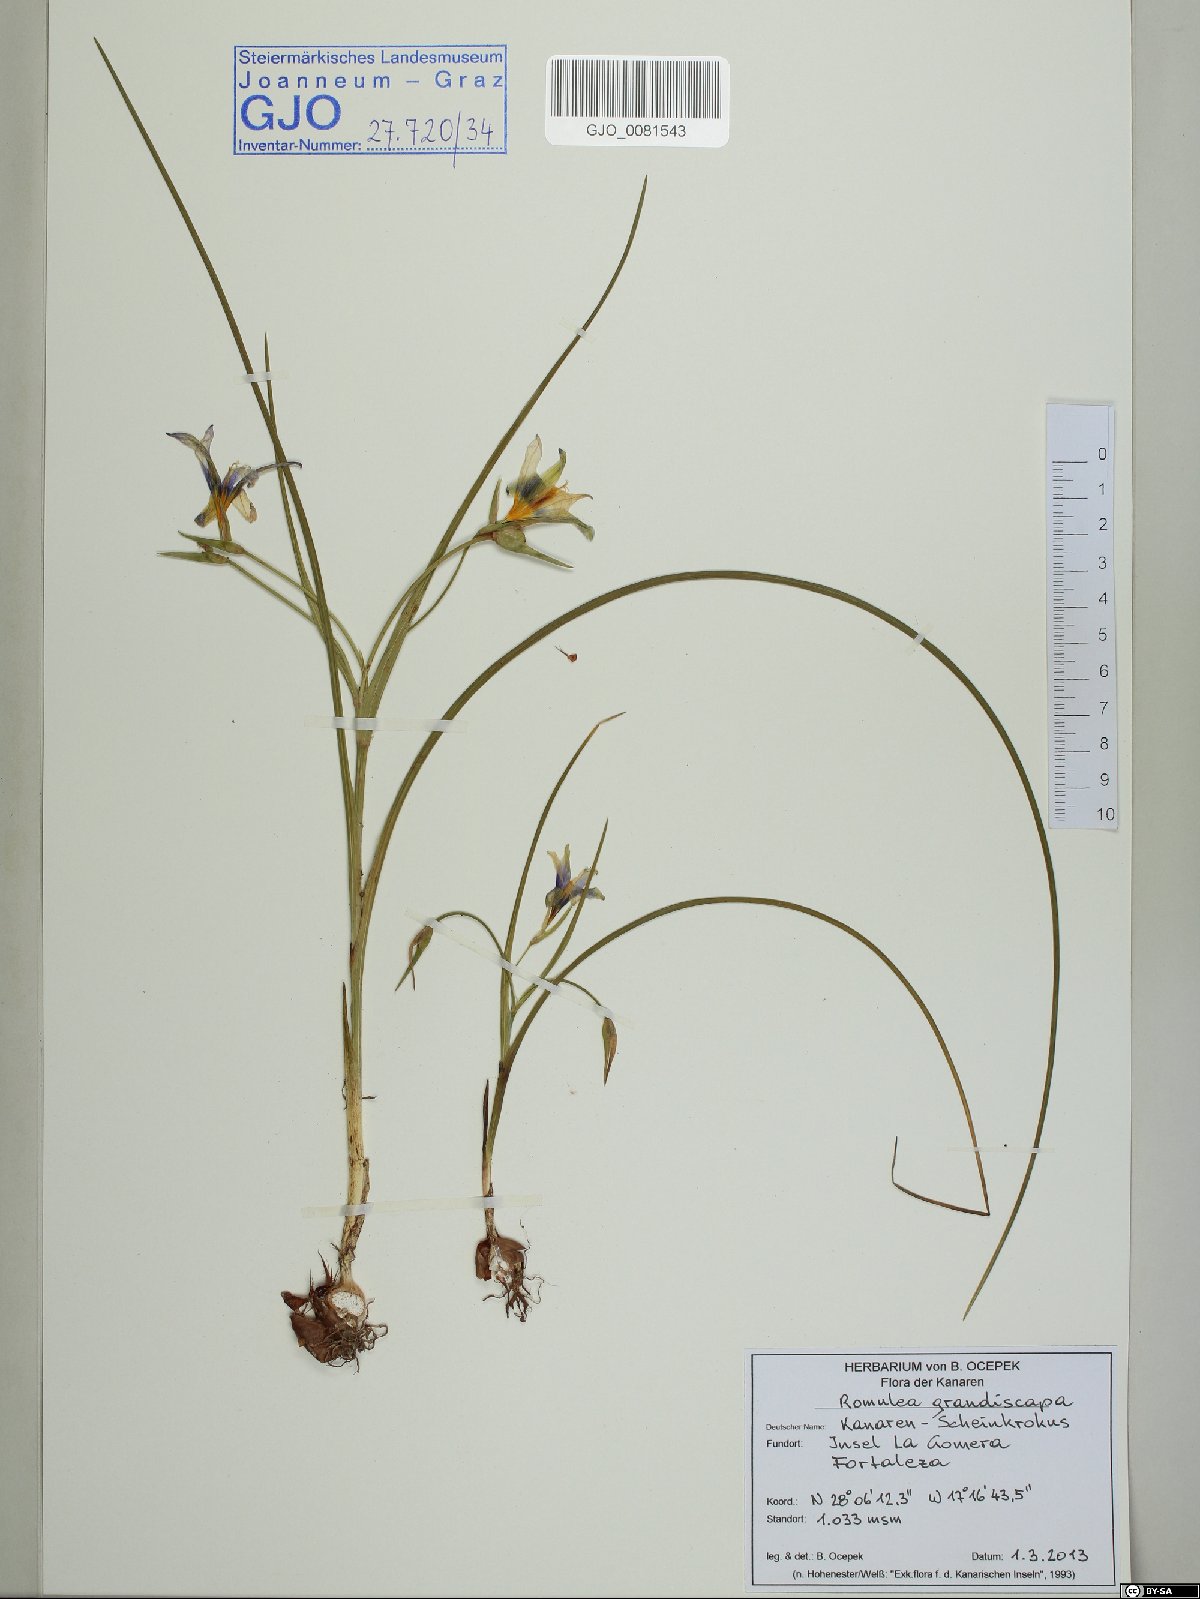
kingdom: Plantae
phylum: Tracheophyta
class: Liliopsida
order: Asparagales
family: Iridaceae
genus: Romulea
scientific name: Romulea columnae
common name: Sand-crocus
